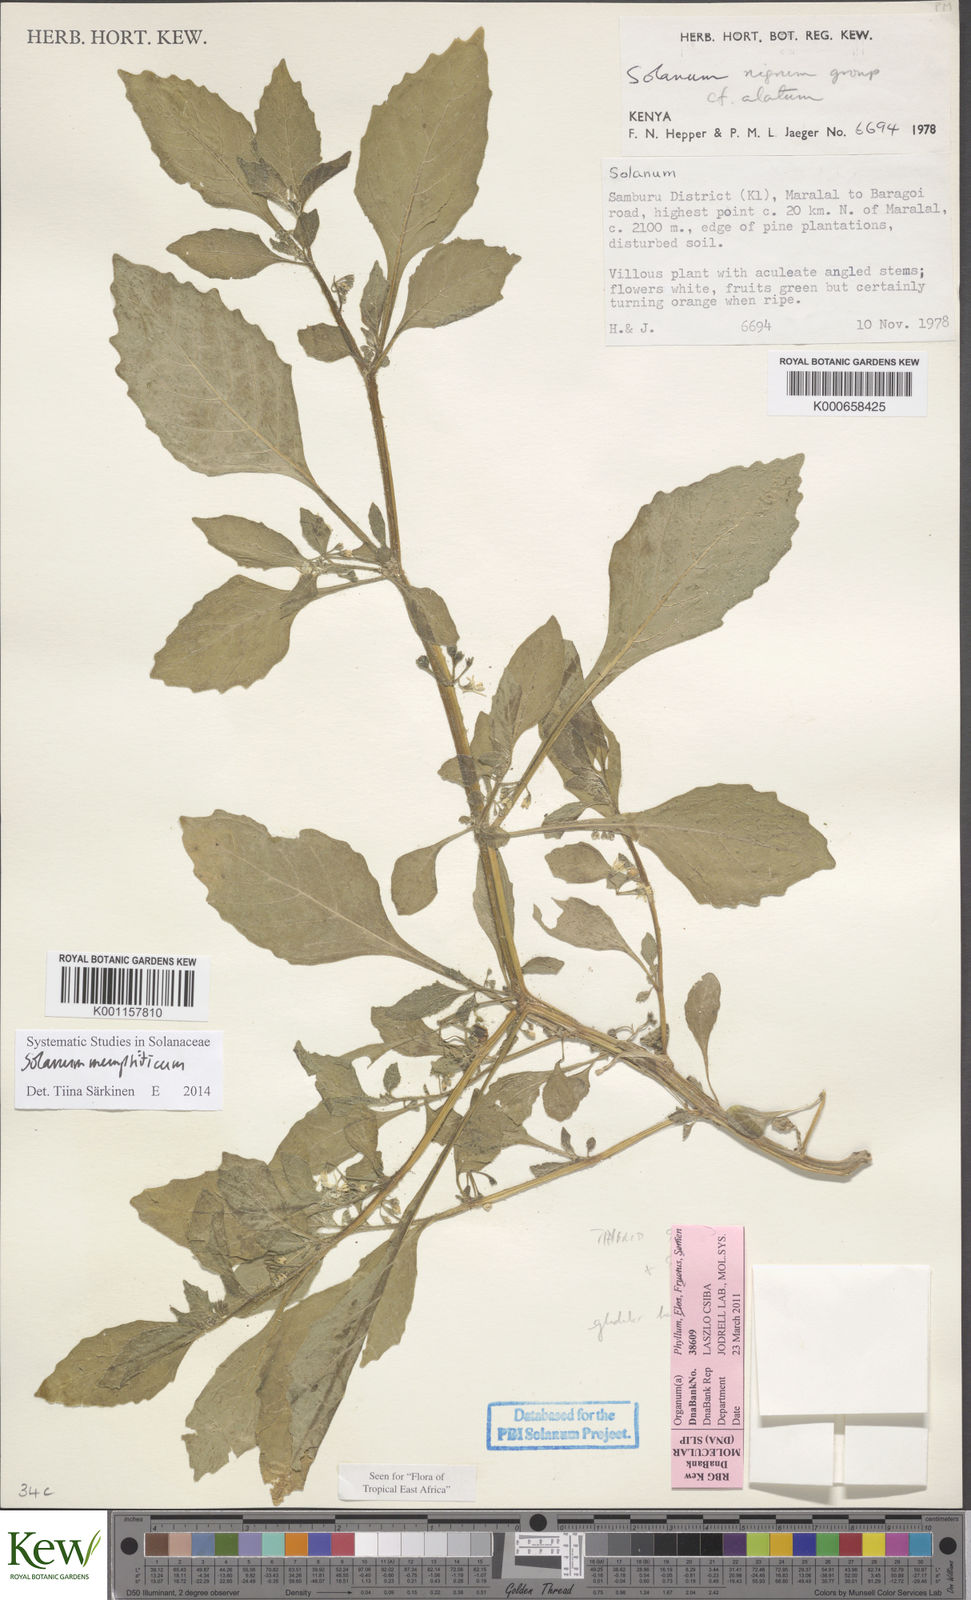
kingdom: Plantae
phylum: Tracheophyta
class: Magnoliopsida
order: Solanales
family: Solanaceae
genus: Solanum
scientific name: Solanum memphiticum
